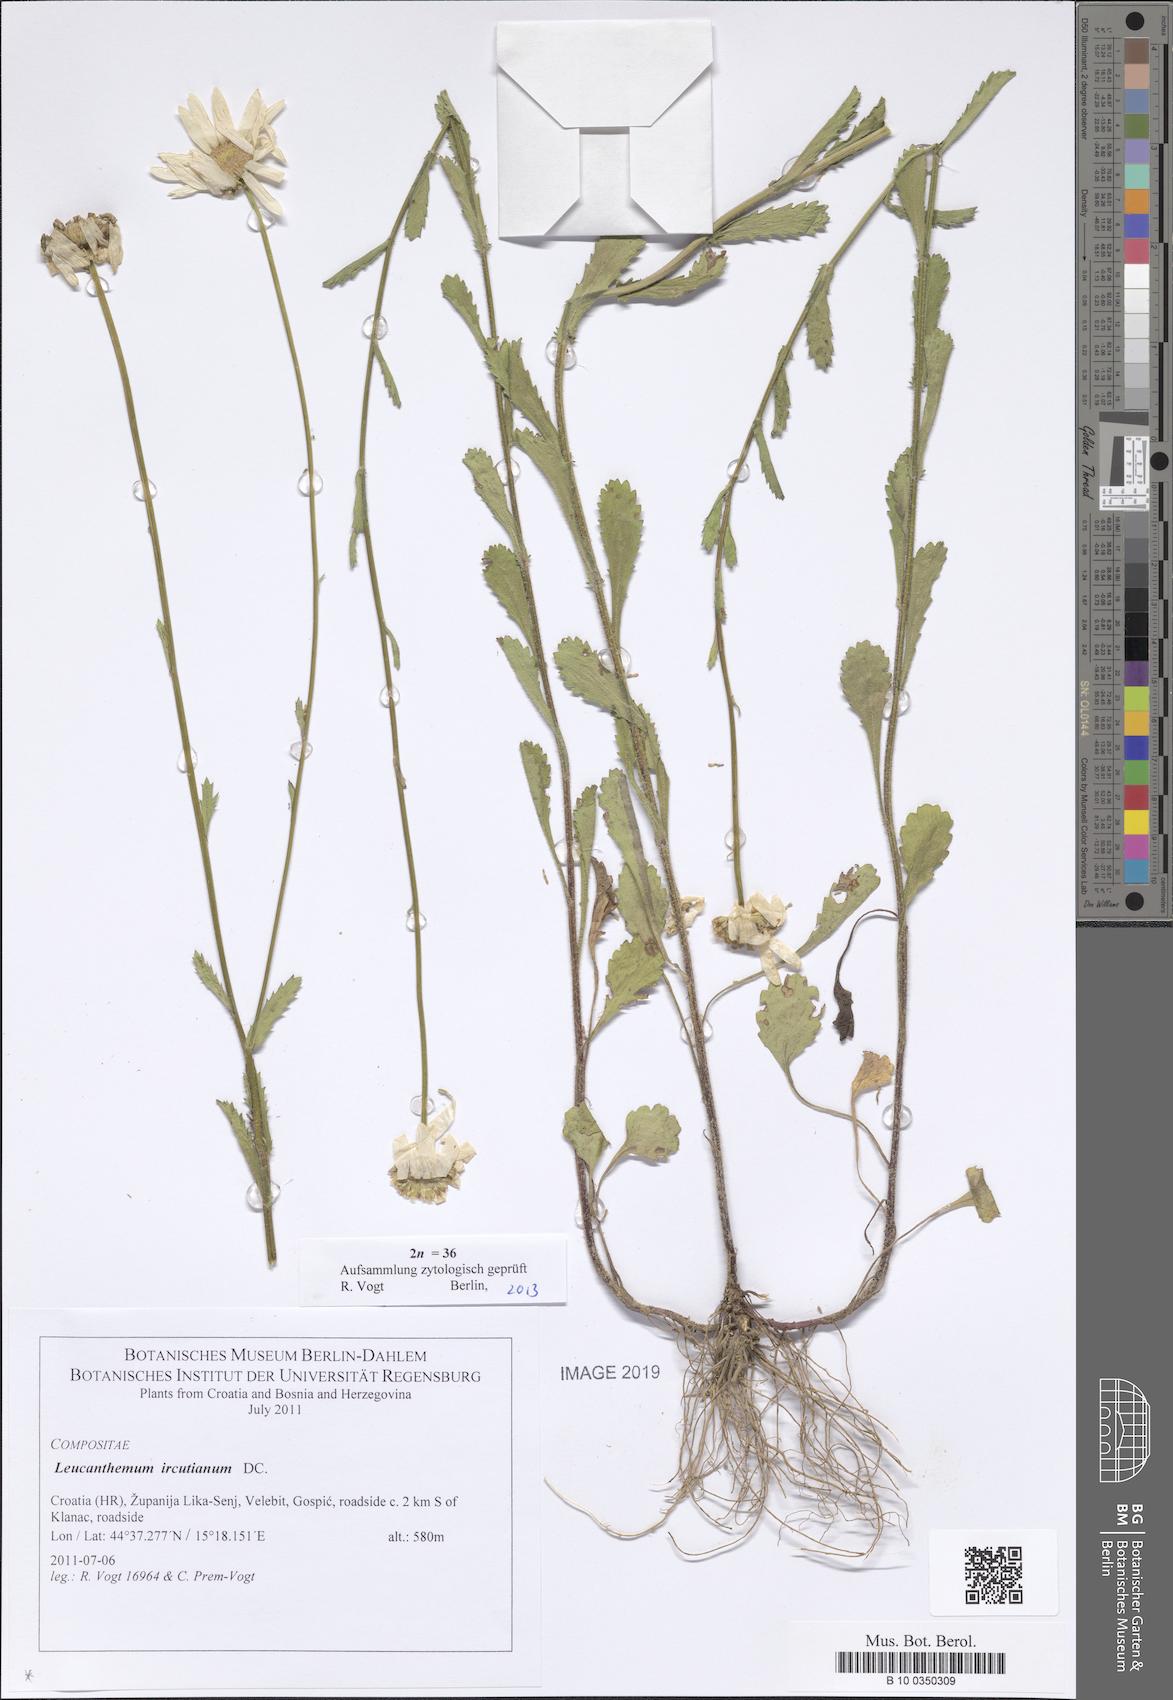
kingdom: Plantae
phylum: Tracheophyta
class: Magnoliopsida
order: Asterales
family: Asteraceae
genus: Leucanthemum
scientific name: Leucanthemum ircutianum
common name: Daisy
